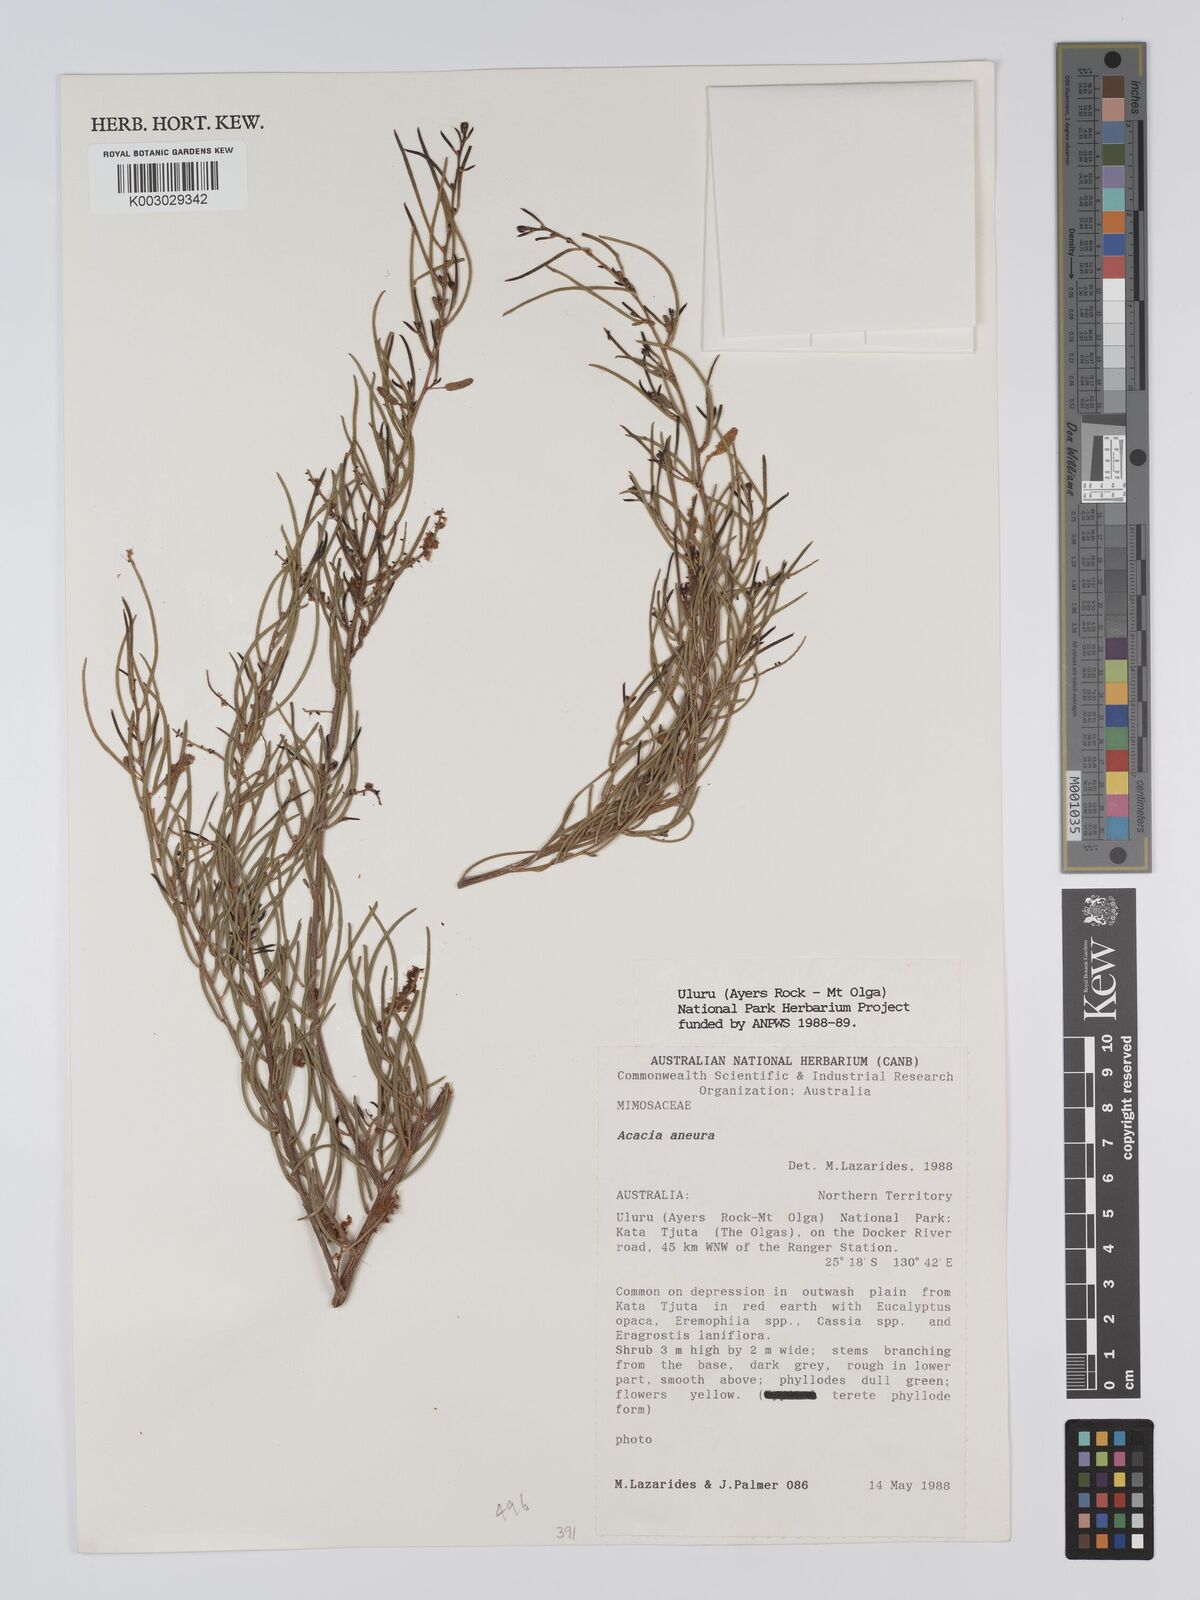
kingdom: Plantae
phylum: Tracheophyta
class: Magnoliopsida
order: Fabales
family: Fabaceae
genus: Acacia
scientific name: Acacia aneura
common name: Mulga
